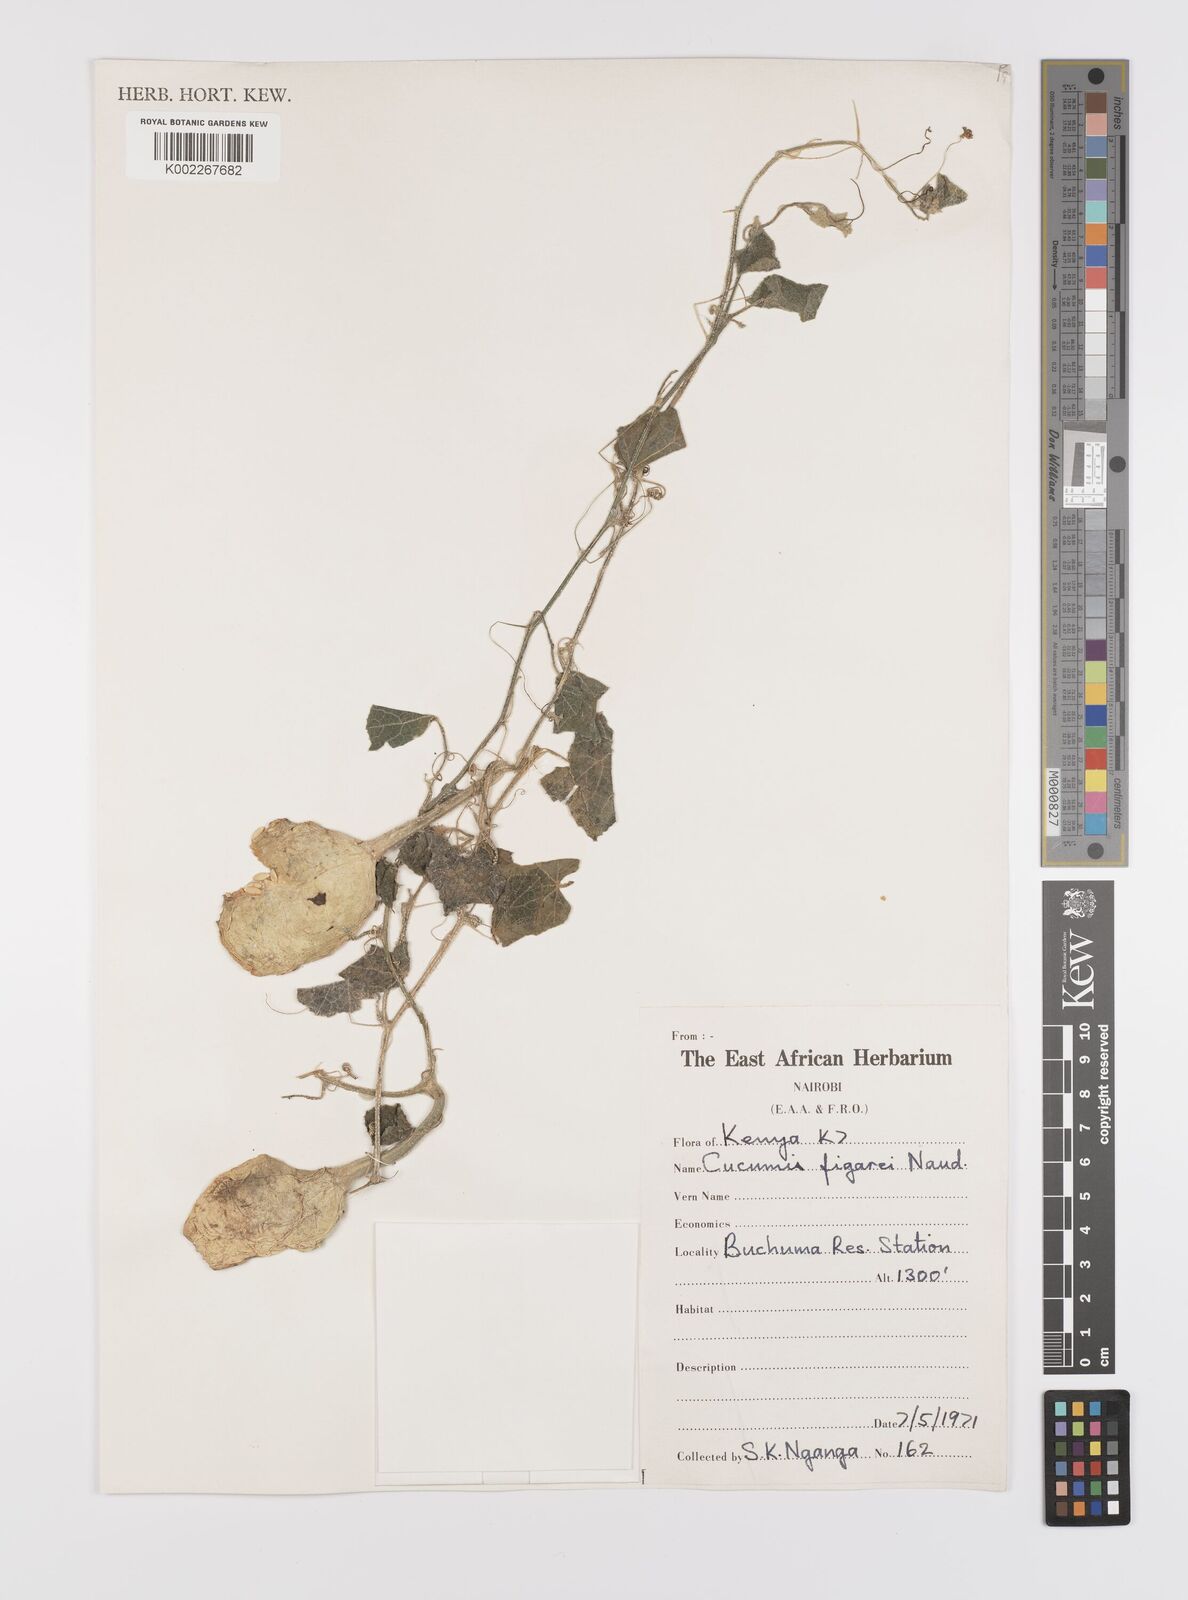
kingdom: Plantae
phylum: Tracheophyta
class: Magnoliopsida
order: Cucurbitales
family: Cucurbitaceae
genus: Cucumis
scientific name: Cucumis
